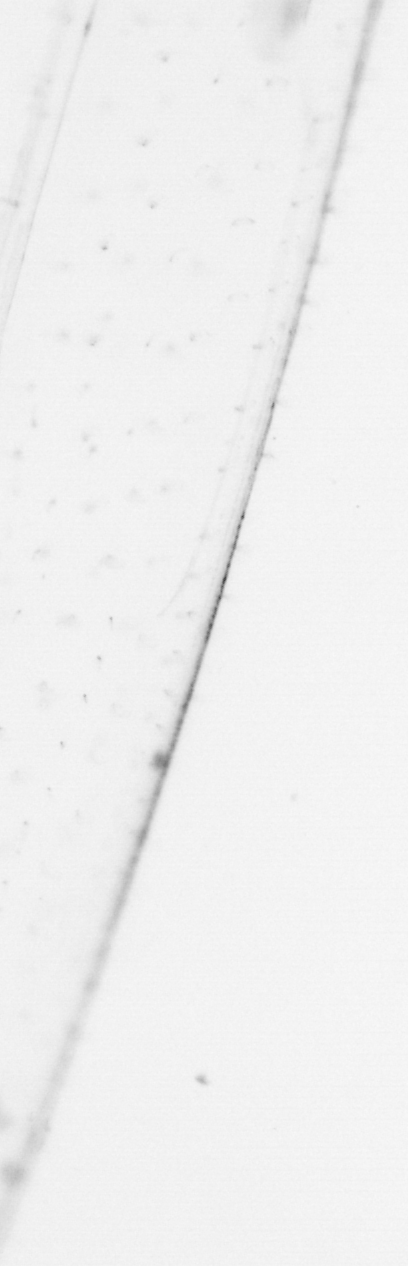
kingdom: Chromista
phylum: Ochrophyta
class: Bacillariophyceae
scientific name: Bacillariophyceae
